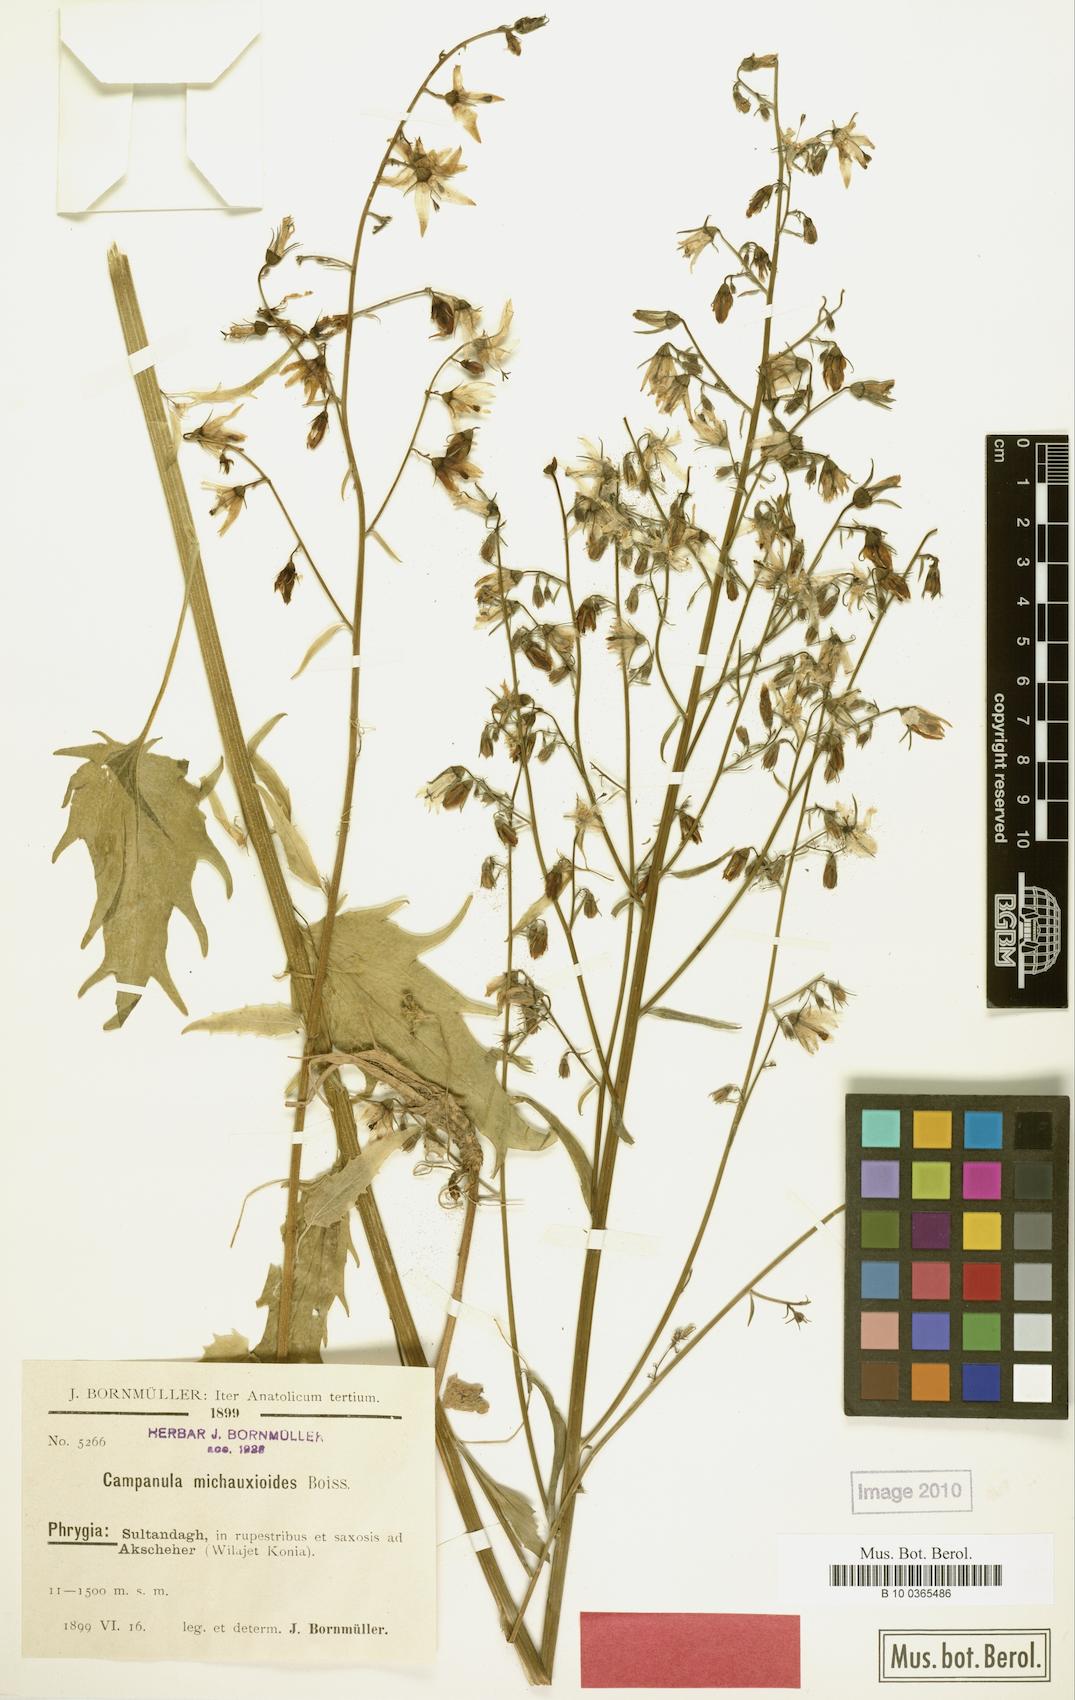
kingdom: Plantae
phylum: Tracheophyta
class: Magnoliopsida
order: Asterales
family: Campanulaceae
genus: Asyneuma
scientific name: Asyneuma michauxioides
